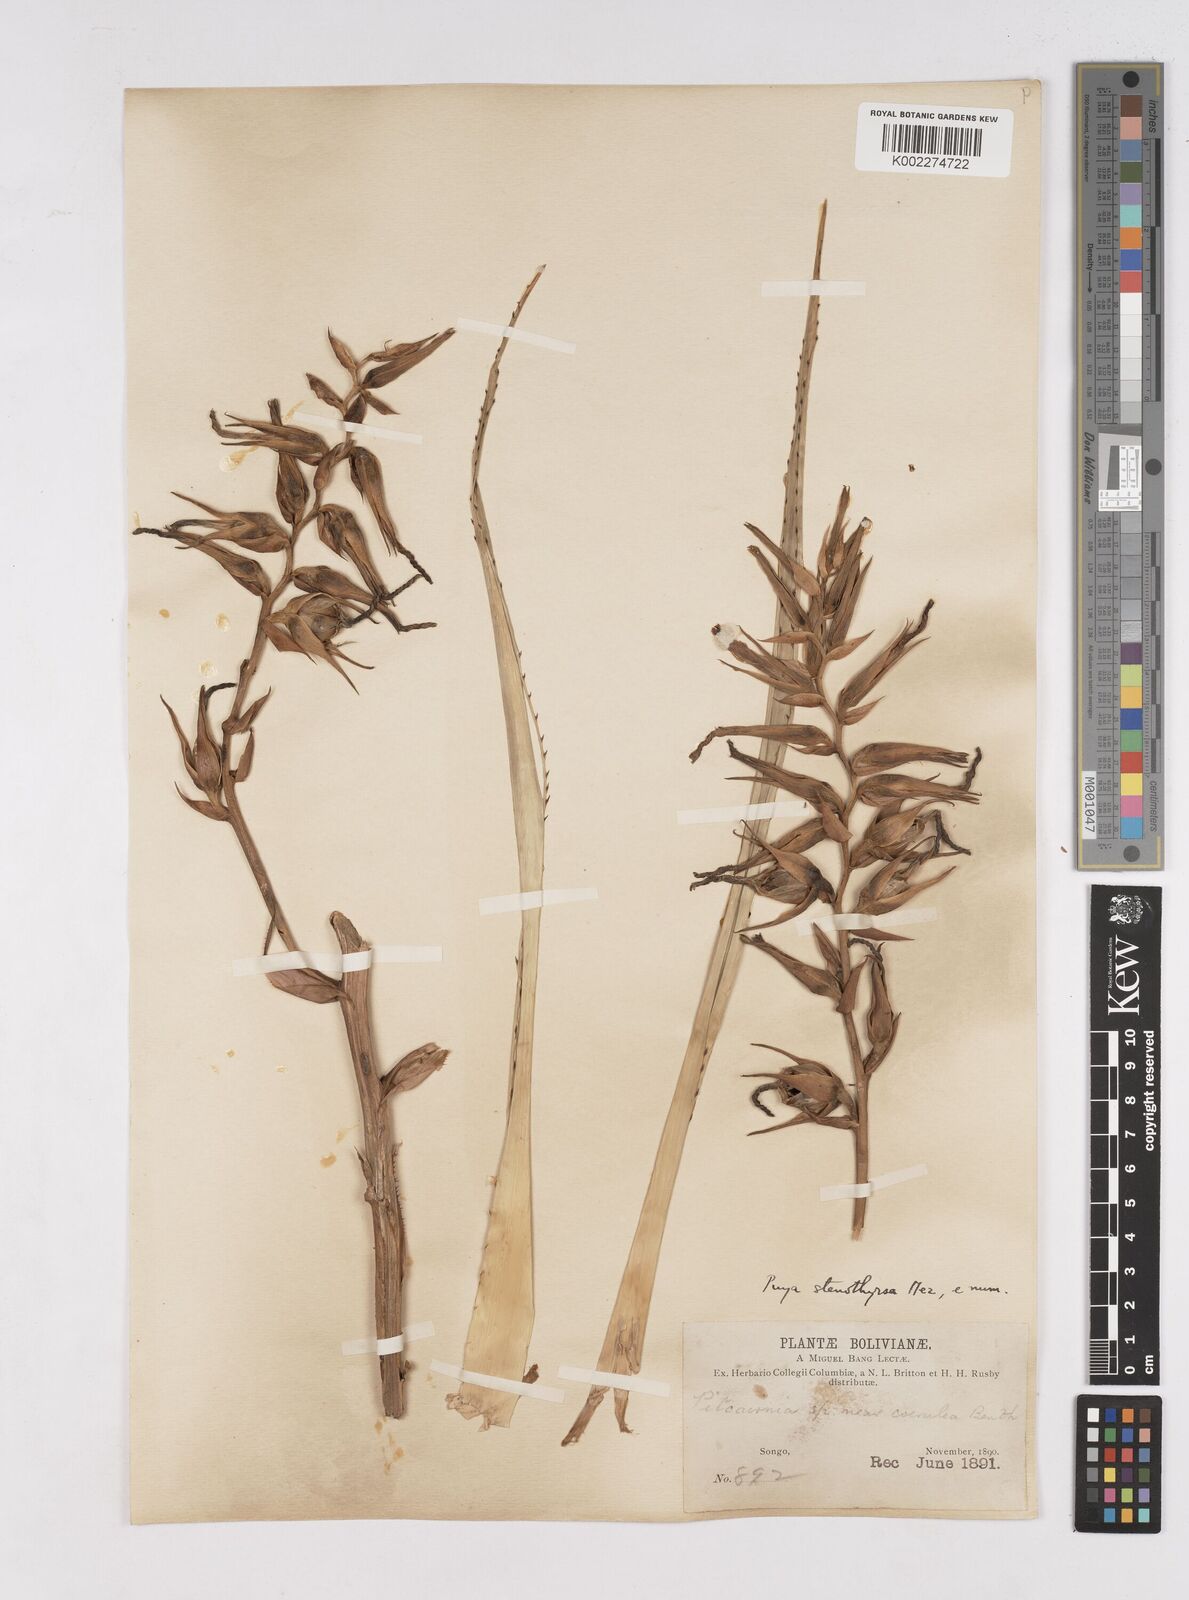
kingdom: Plantae
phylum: Tracheophyta
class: Liliopsida
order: Poales
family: Bromeliaceae
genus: Puya
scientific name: Puya sanctae-crucis
